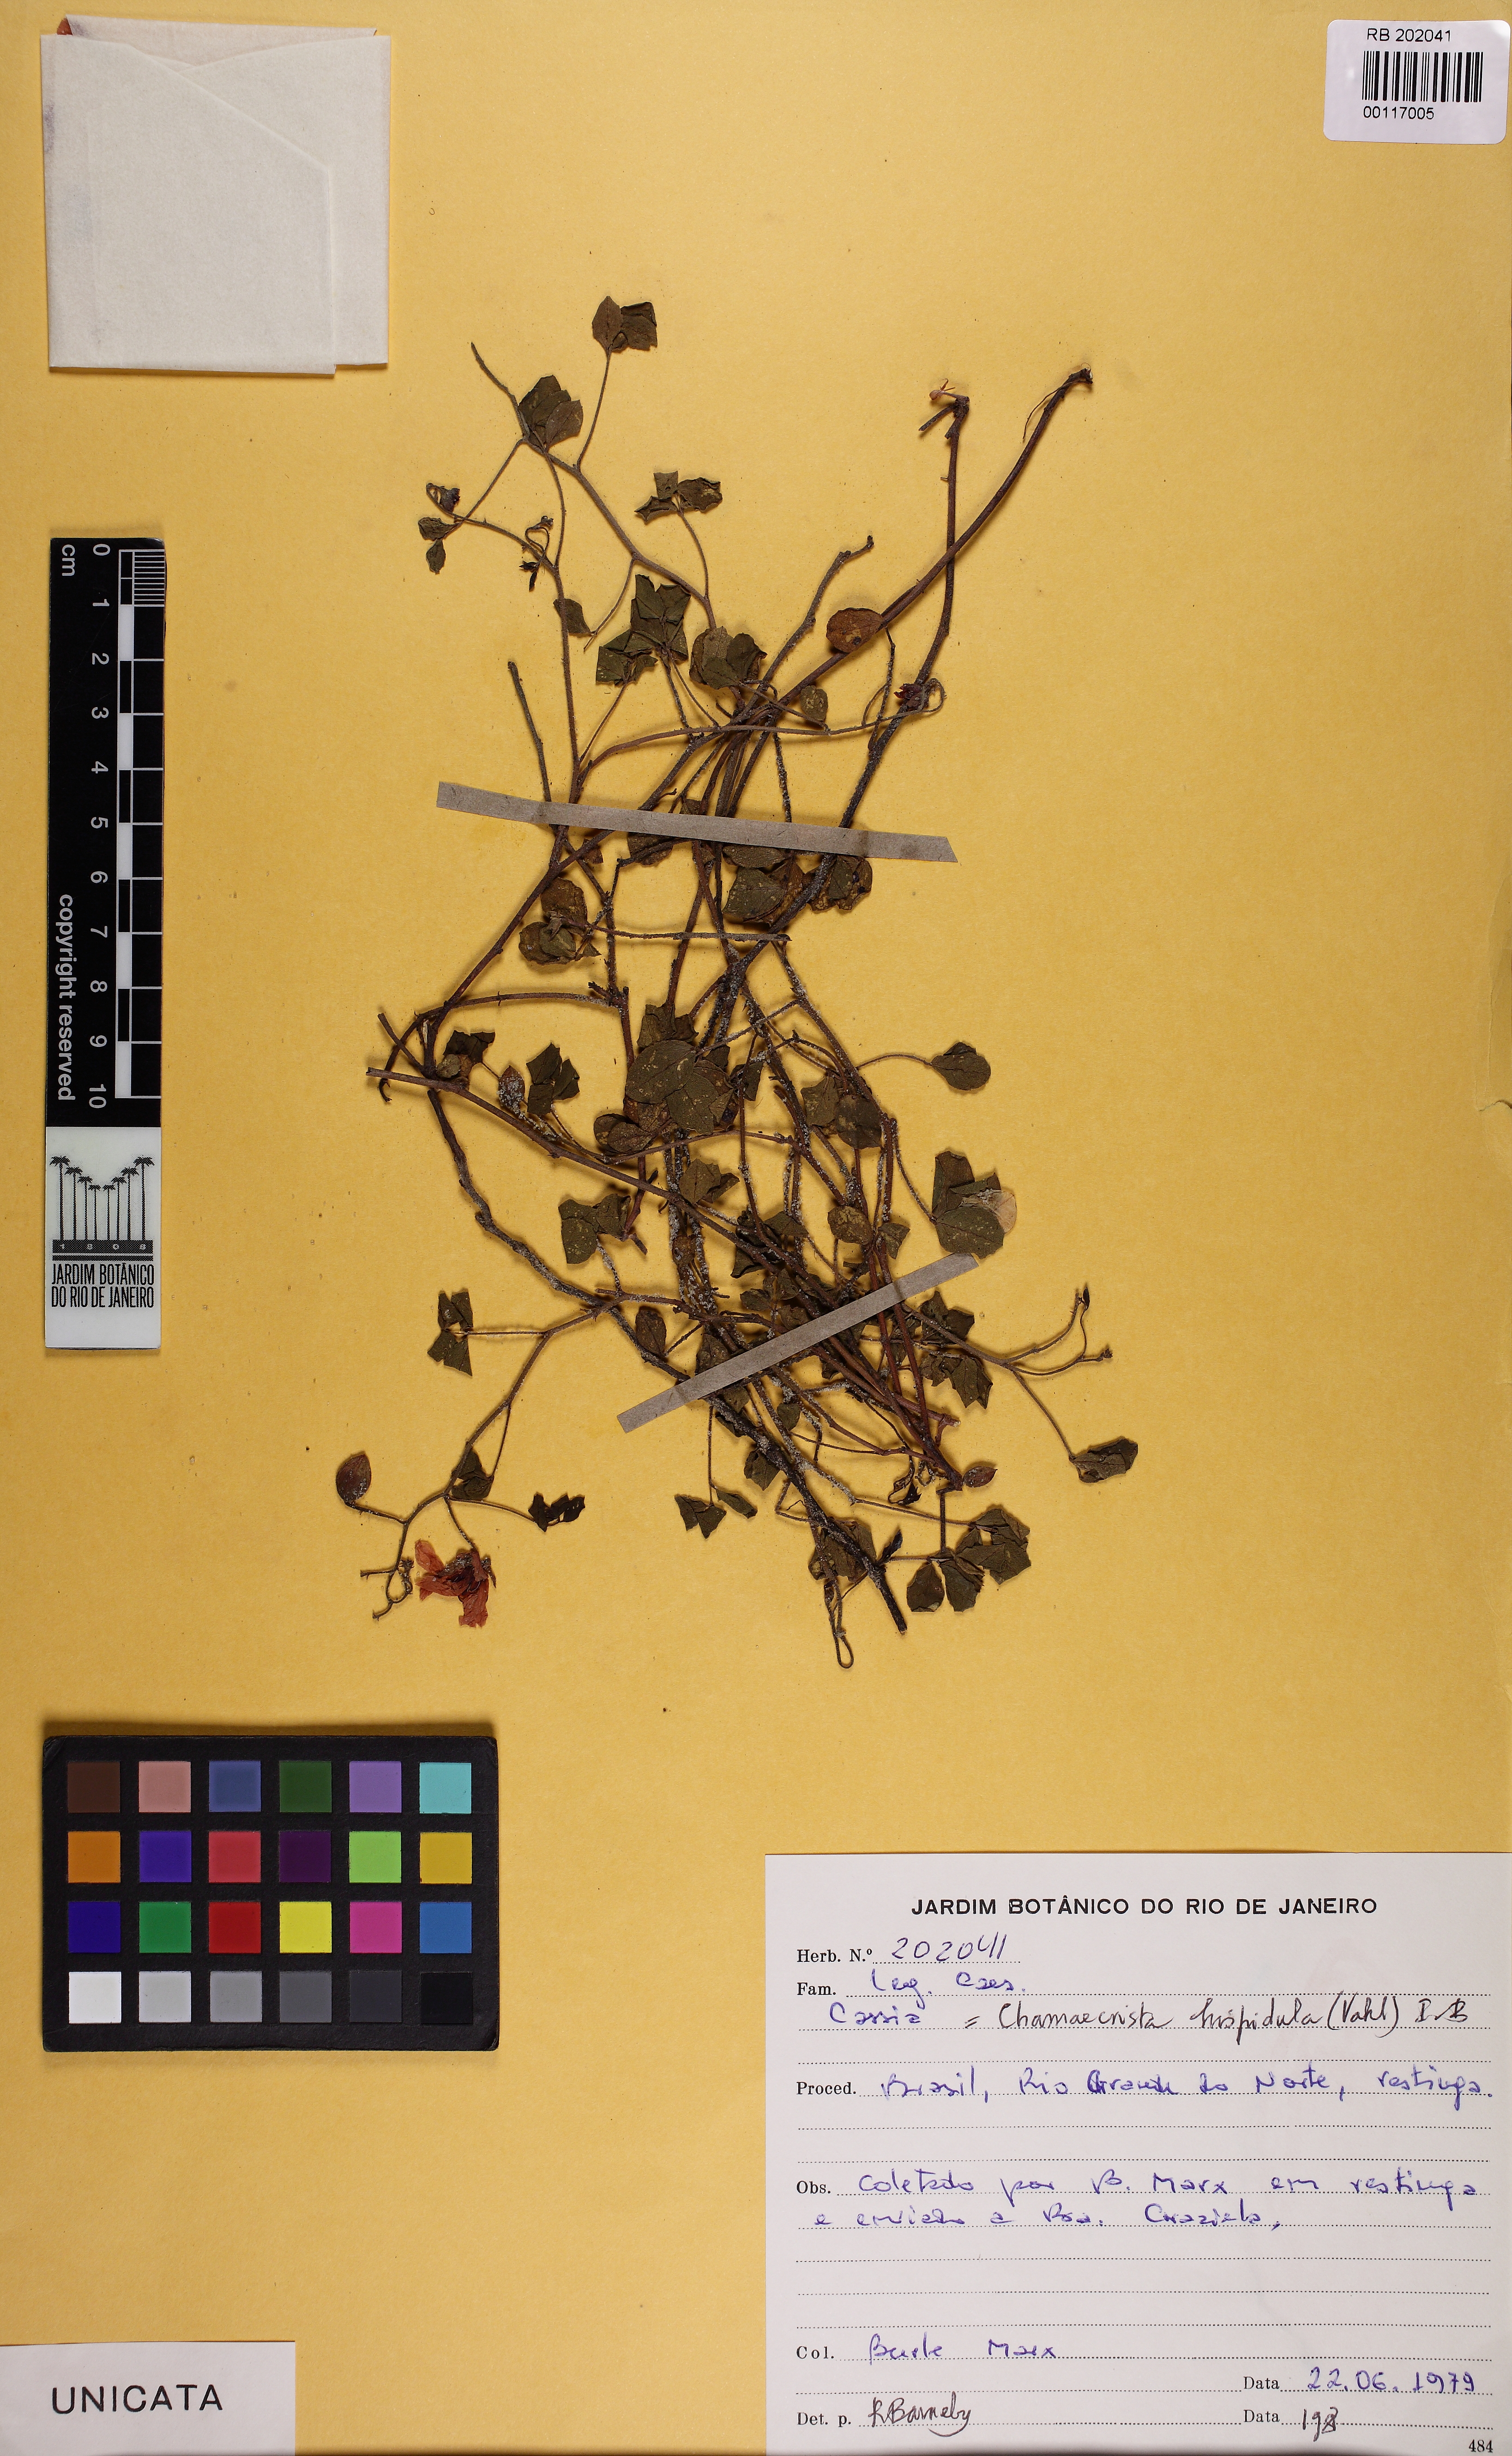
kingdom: Plantae
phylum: Tracheophyta
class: Magnoliopsida
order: Fabales
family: Fabaceae
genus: Chamaecrista
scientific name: Chamaecrista hispidula
